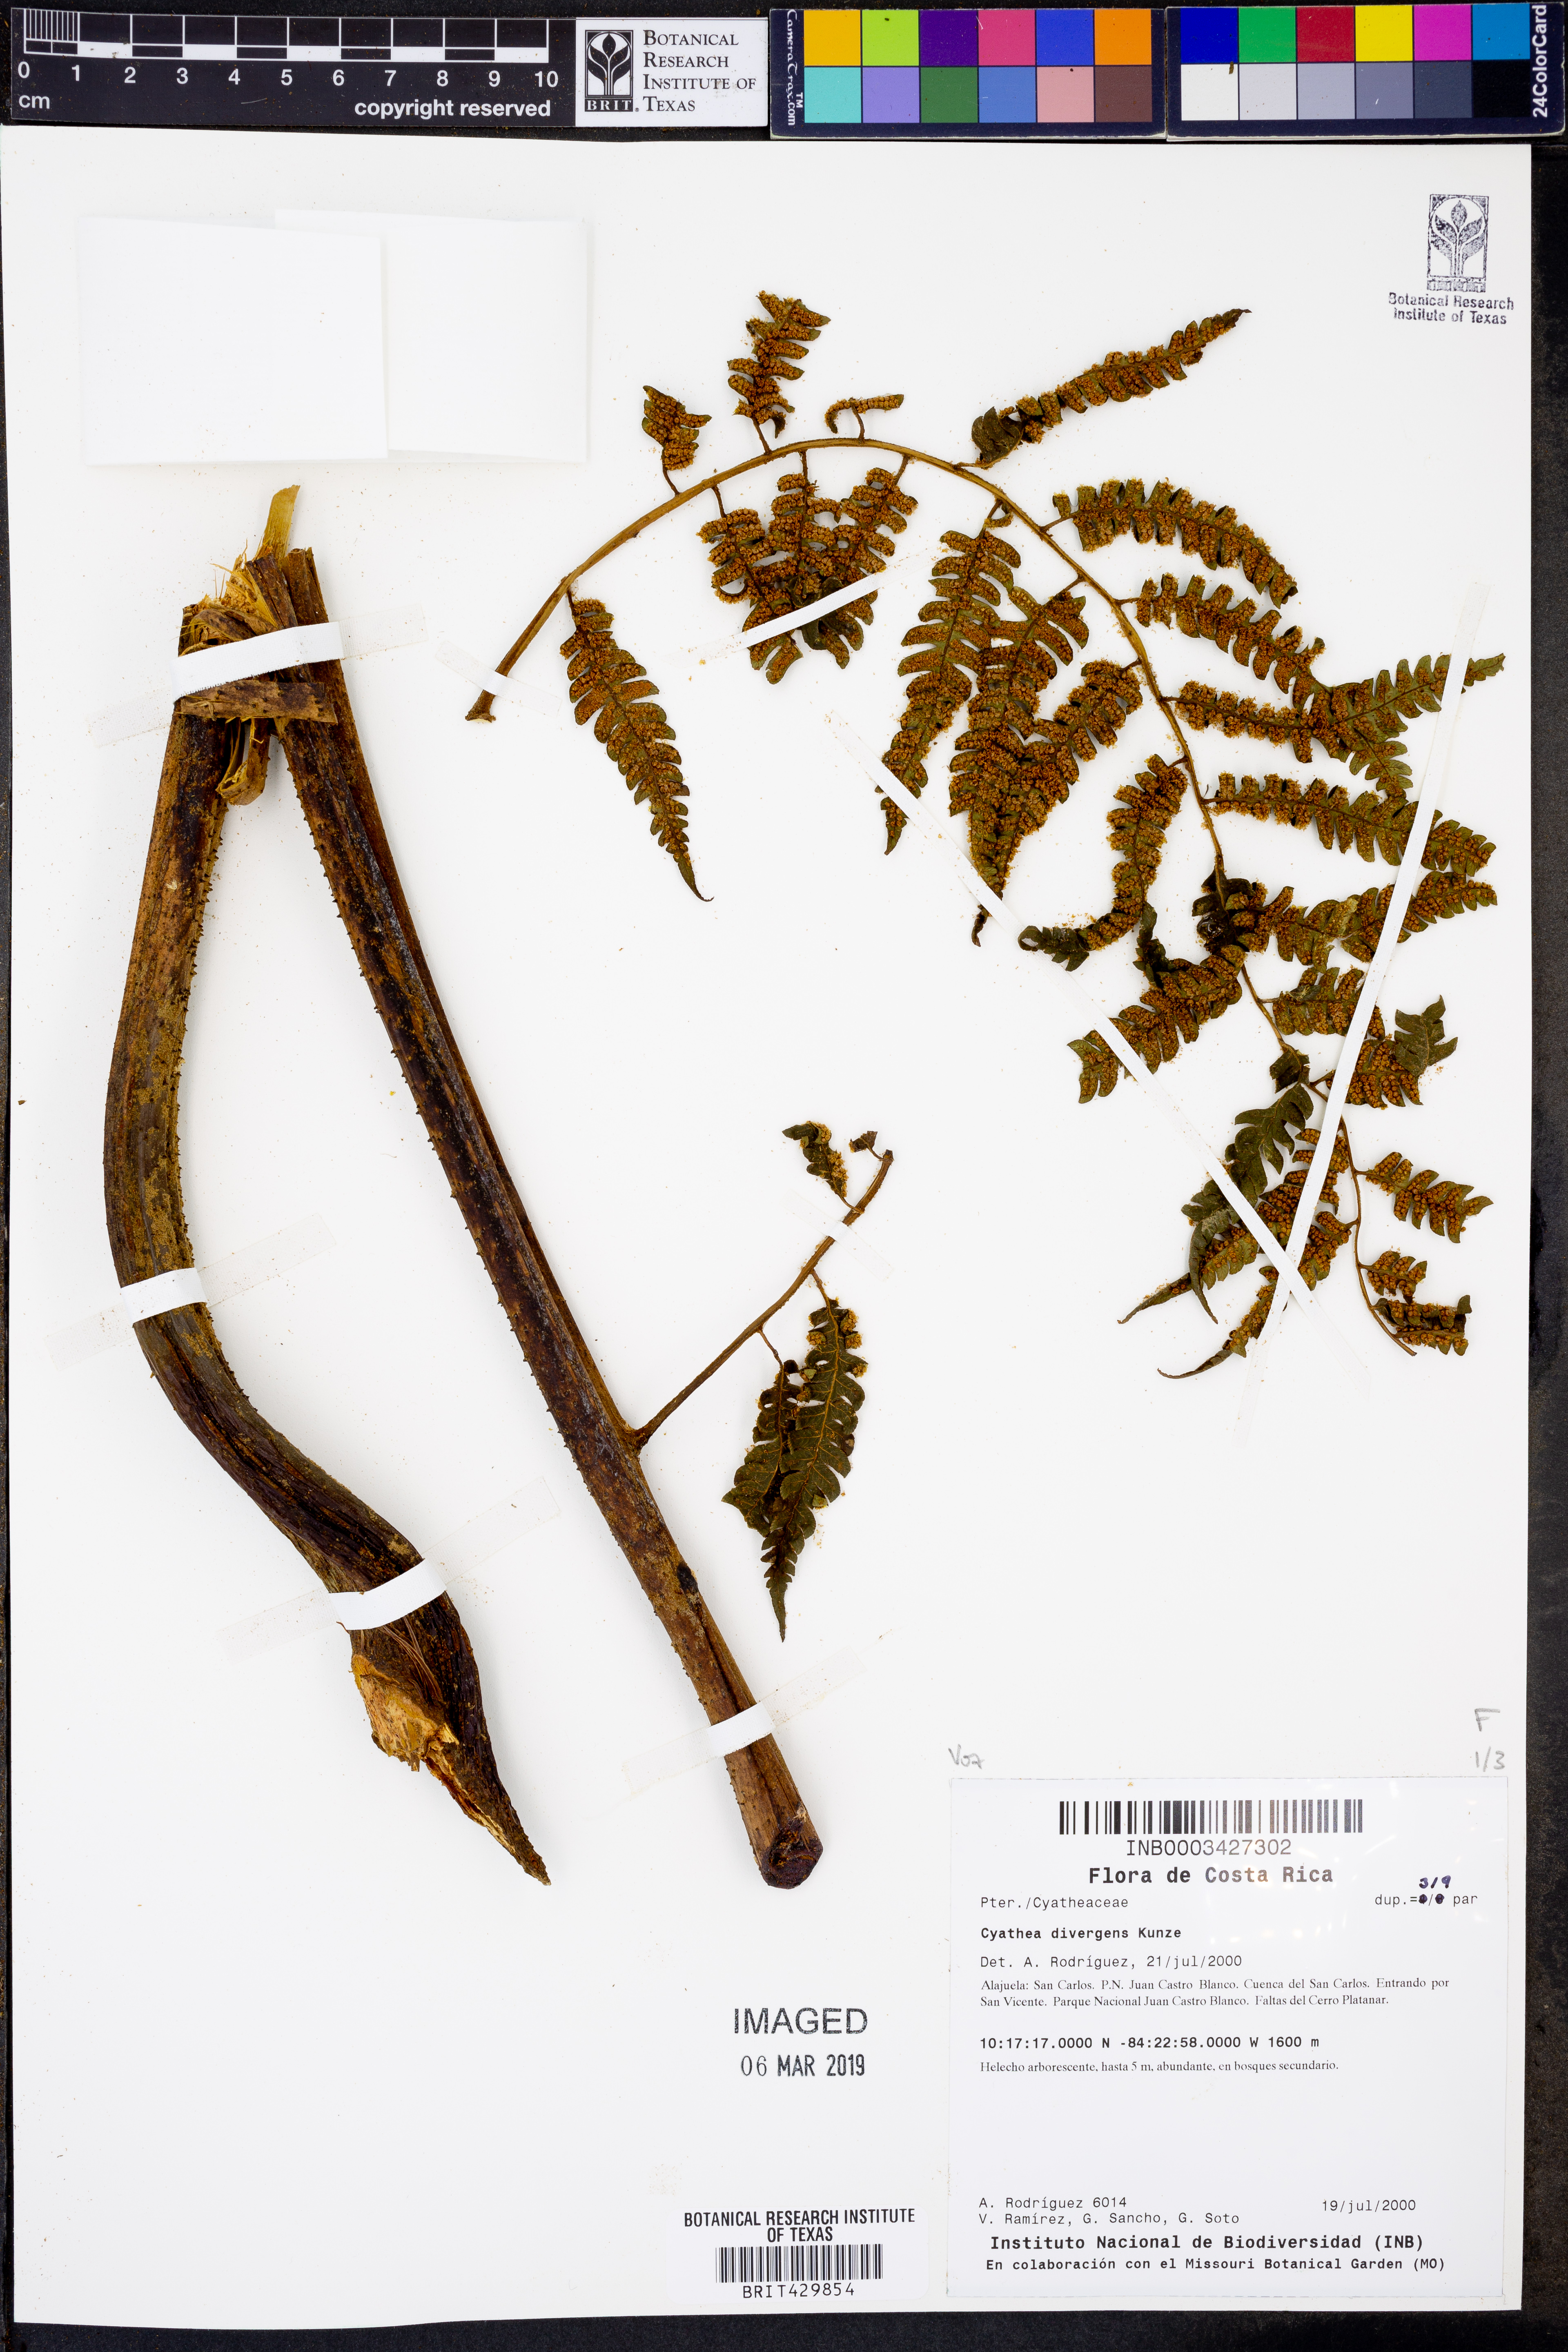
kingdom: Plantae
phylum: Tracheophyta
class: Polypodiopsida
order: Cyatheales
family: Cyatheaceae
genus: Cyathea
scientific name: Cyathea divergens
